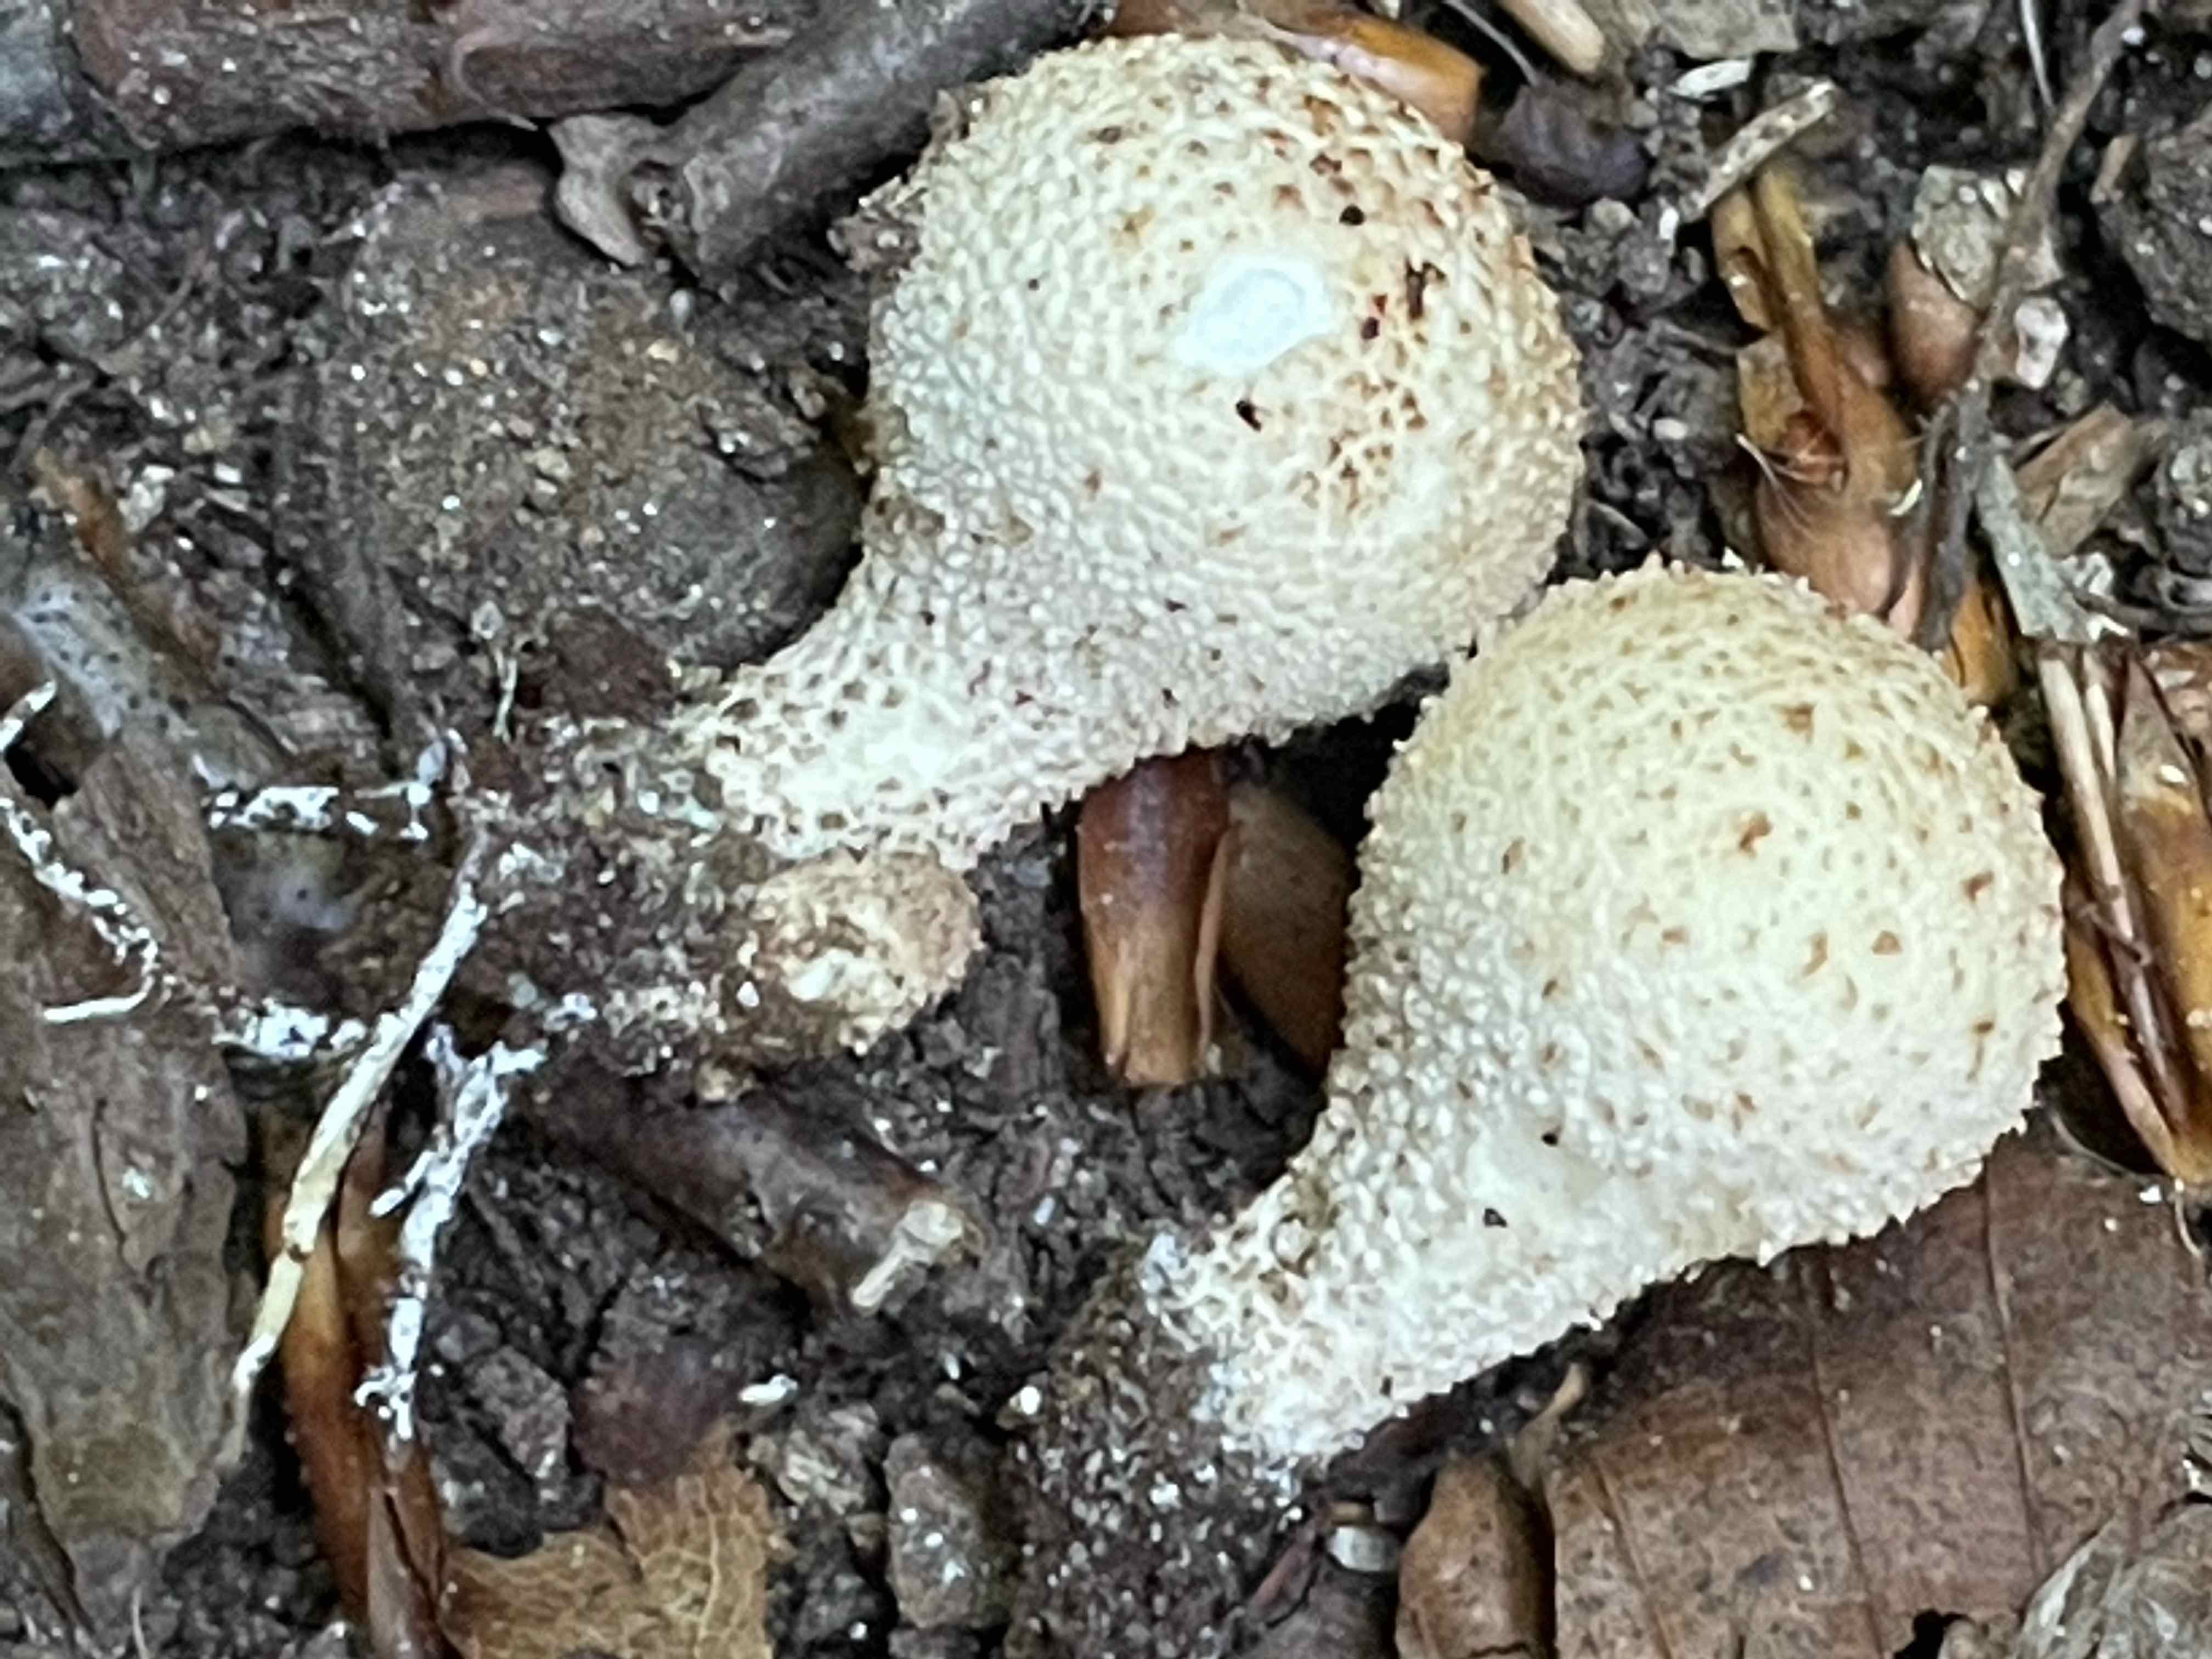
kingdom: Fungi
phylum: Basidiomycota
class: Agaricomycetes
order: Agaricales
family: Lycoperdaceae
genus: Apioperdon
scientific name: Apioperdon pyriforme
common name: pære-støvbold
